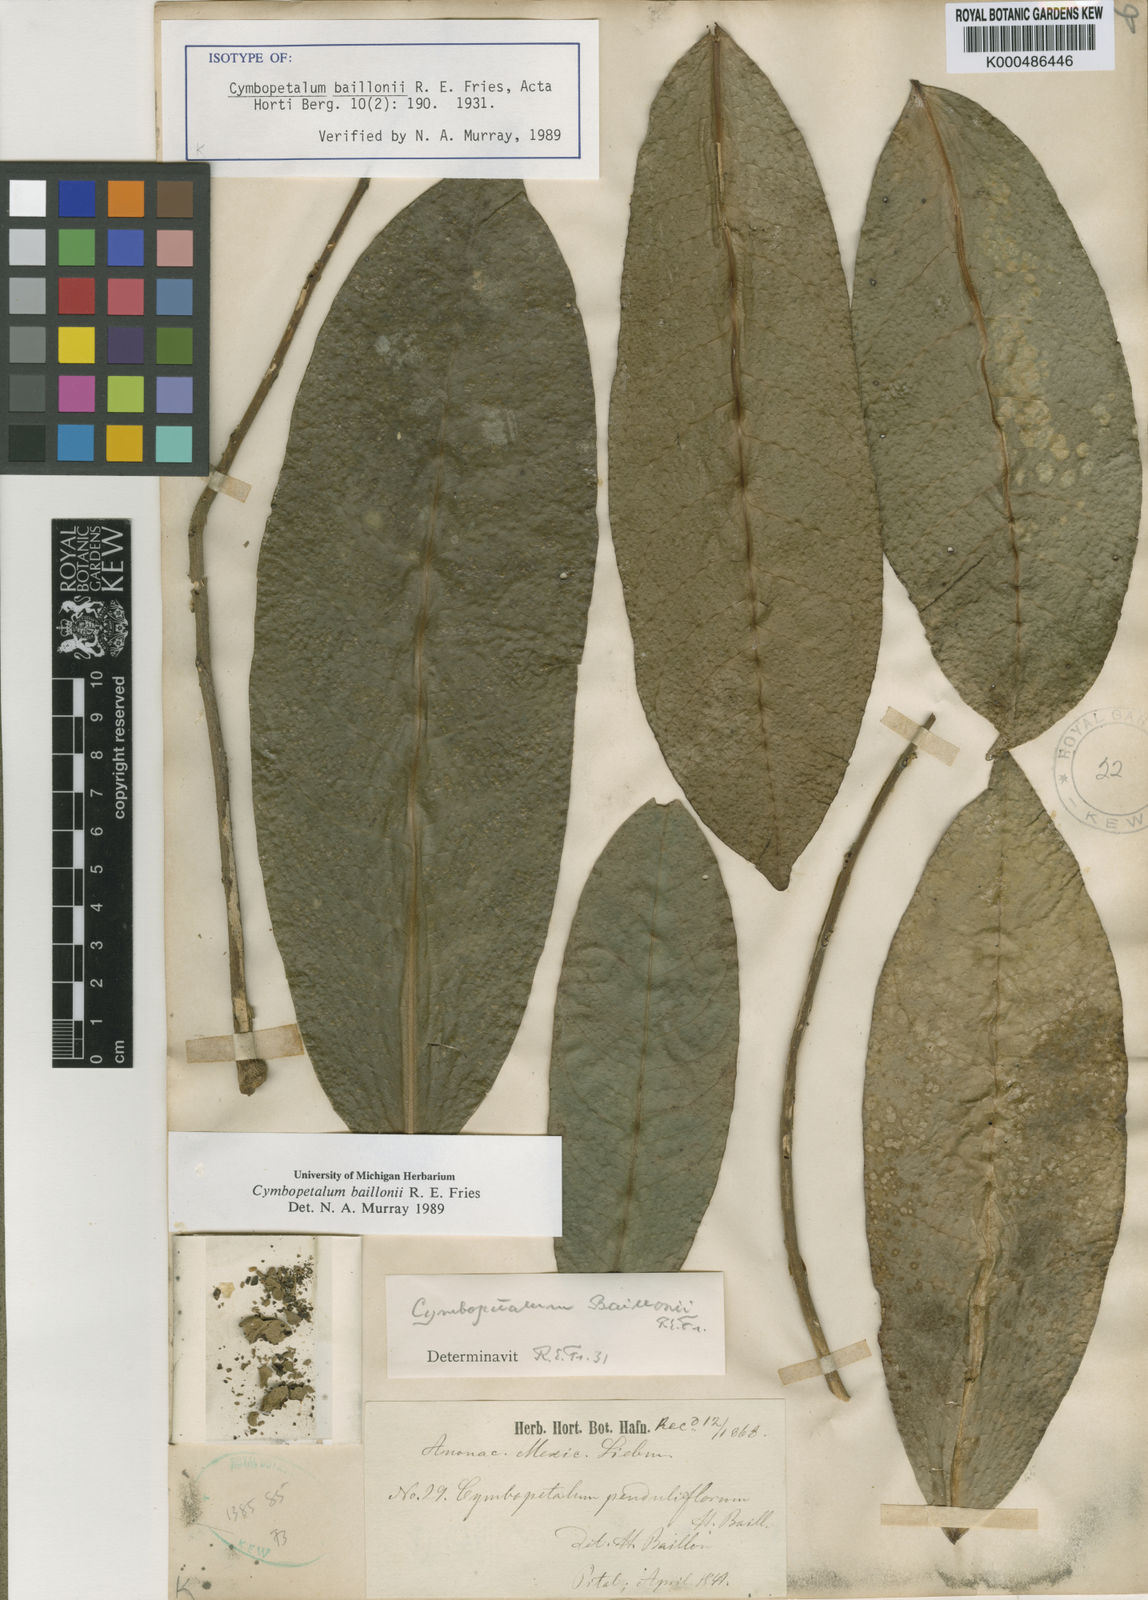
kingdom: Plantae
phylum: Tracheophyta
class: Magnoliopsida
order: Magnoliales
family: Annonaceae
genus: Cymbopetalum
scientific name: Cymbopetalum baillonii
